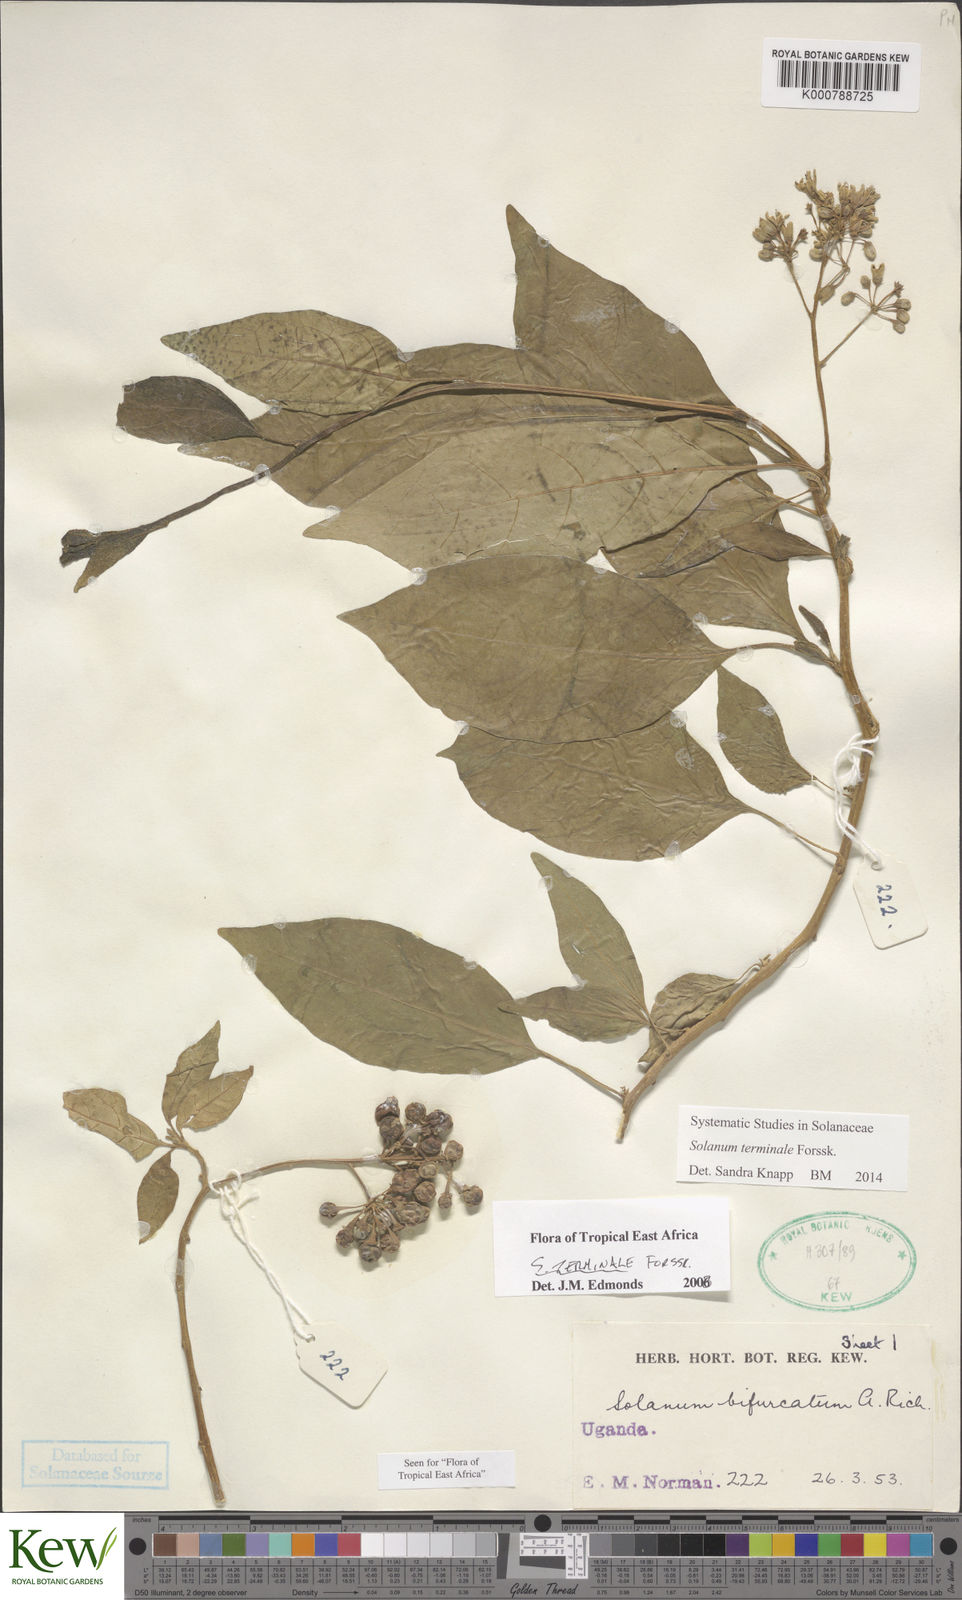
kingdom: Plantae
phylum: Tracheophyta
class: Magnoliopsida
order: Solanales
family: Solanaceae
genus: Solanum
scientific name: Solanum terminale
